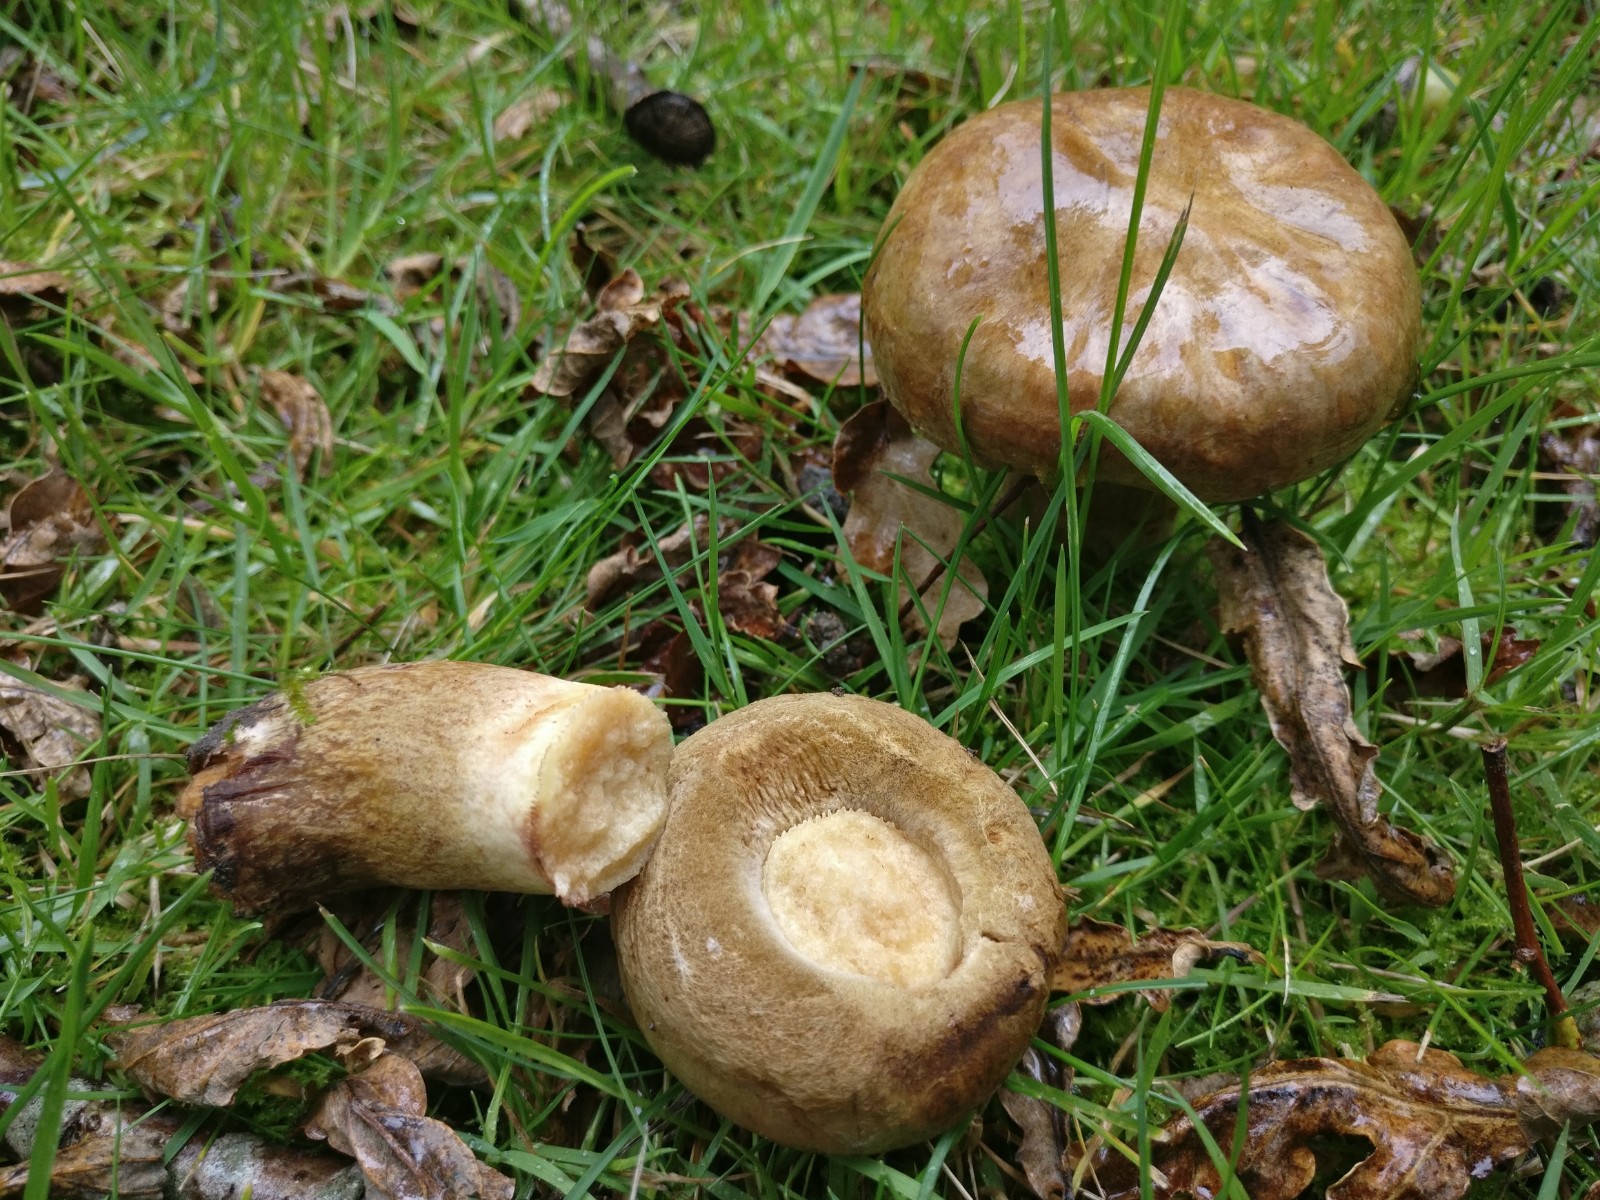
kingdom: Fungi
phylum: Basidiomycota
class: Agaricomycetes
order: Boletales
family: Paxillaceae
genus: Paxillus
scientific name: Paxillus
